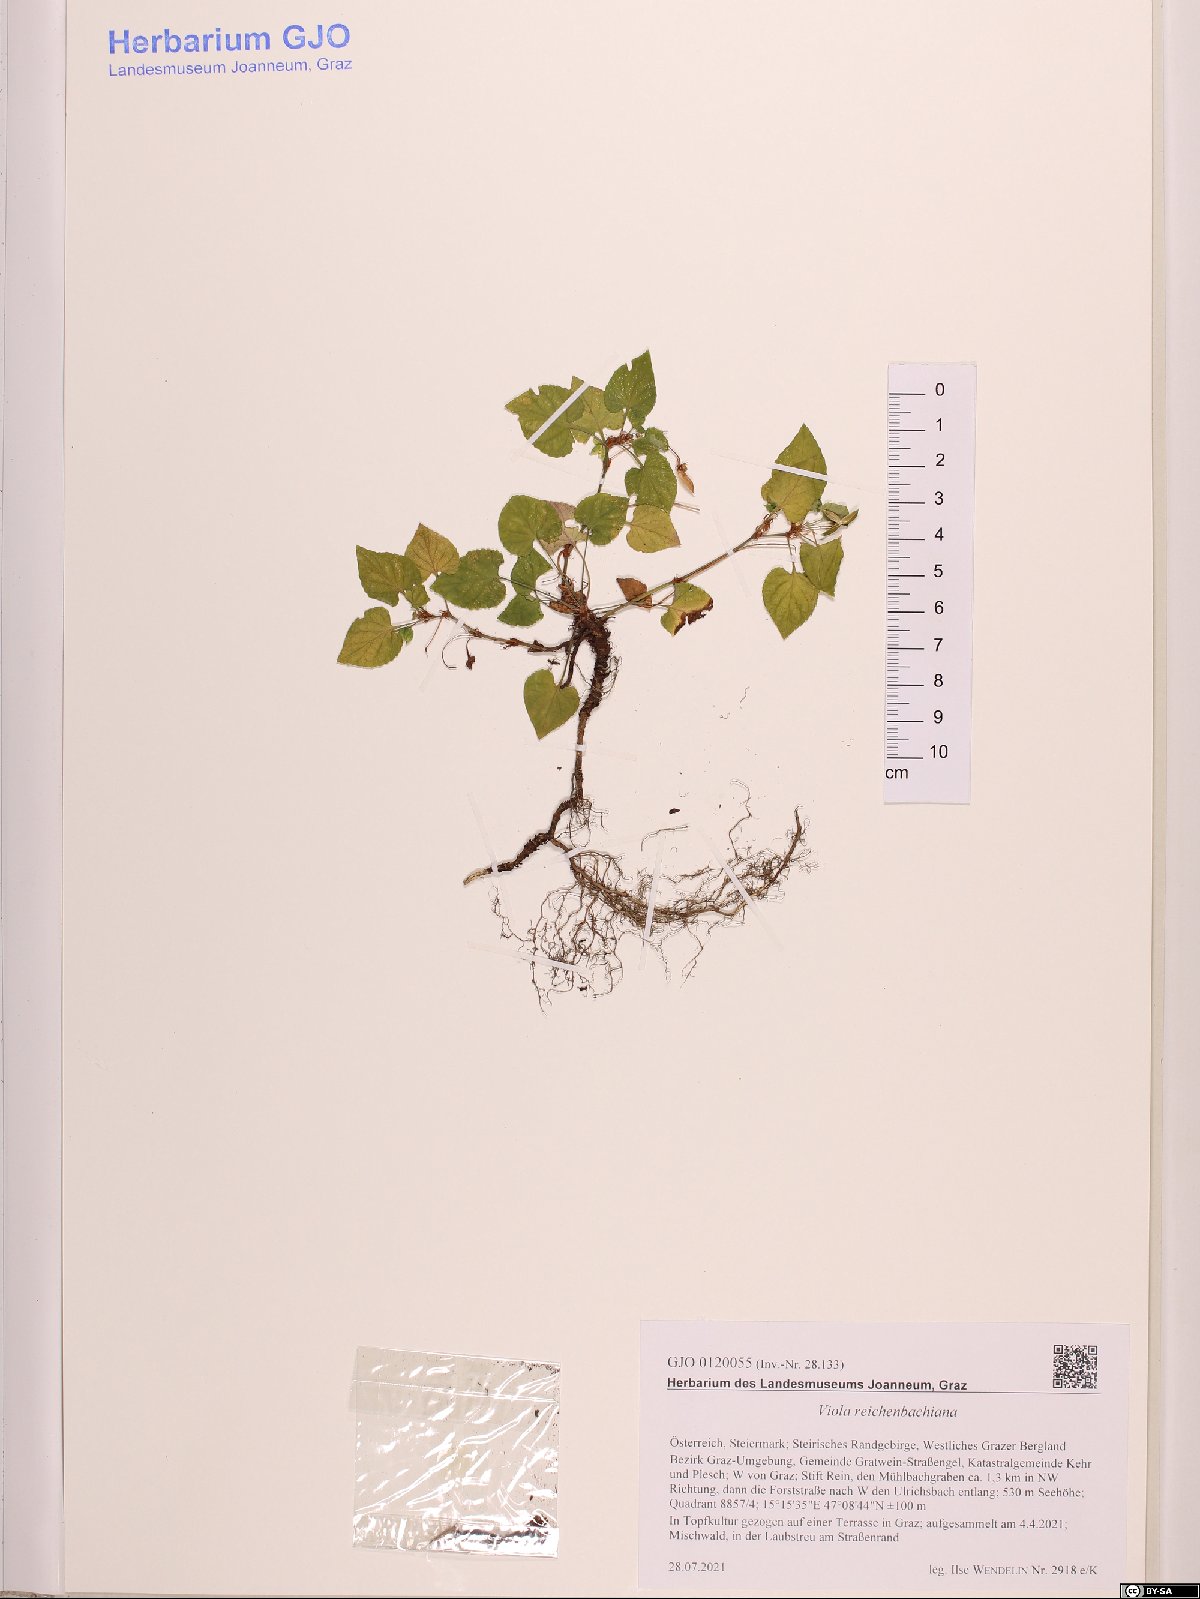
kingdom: Plantae
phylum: Tracheophyta
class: Magnoliopsida
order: Malpighiales
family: Violaceae
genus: Viola
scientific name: Viola reichenbachiana
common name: Early dog-violet
